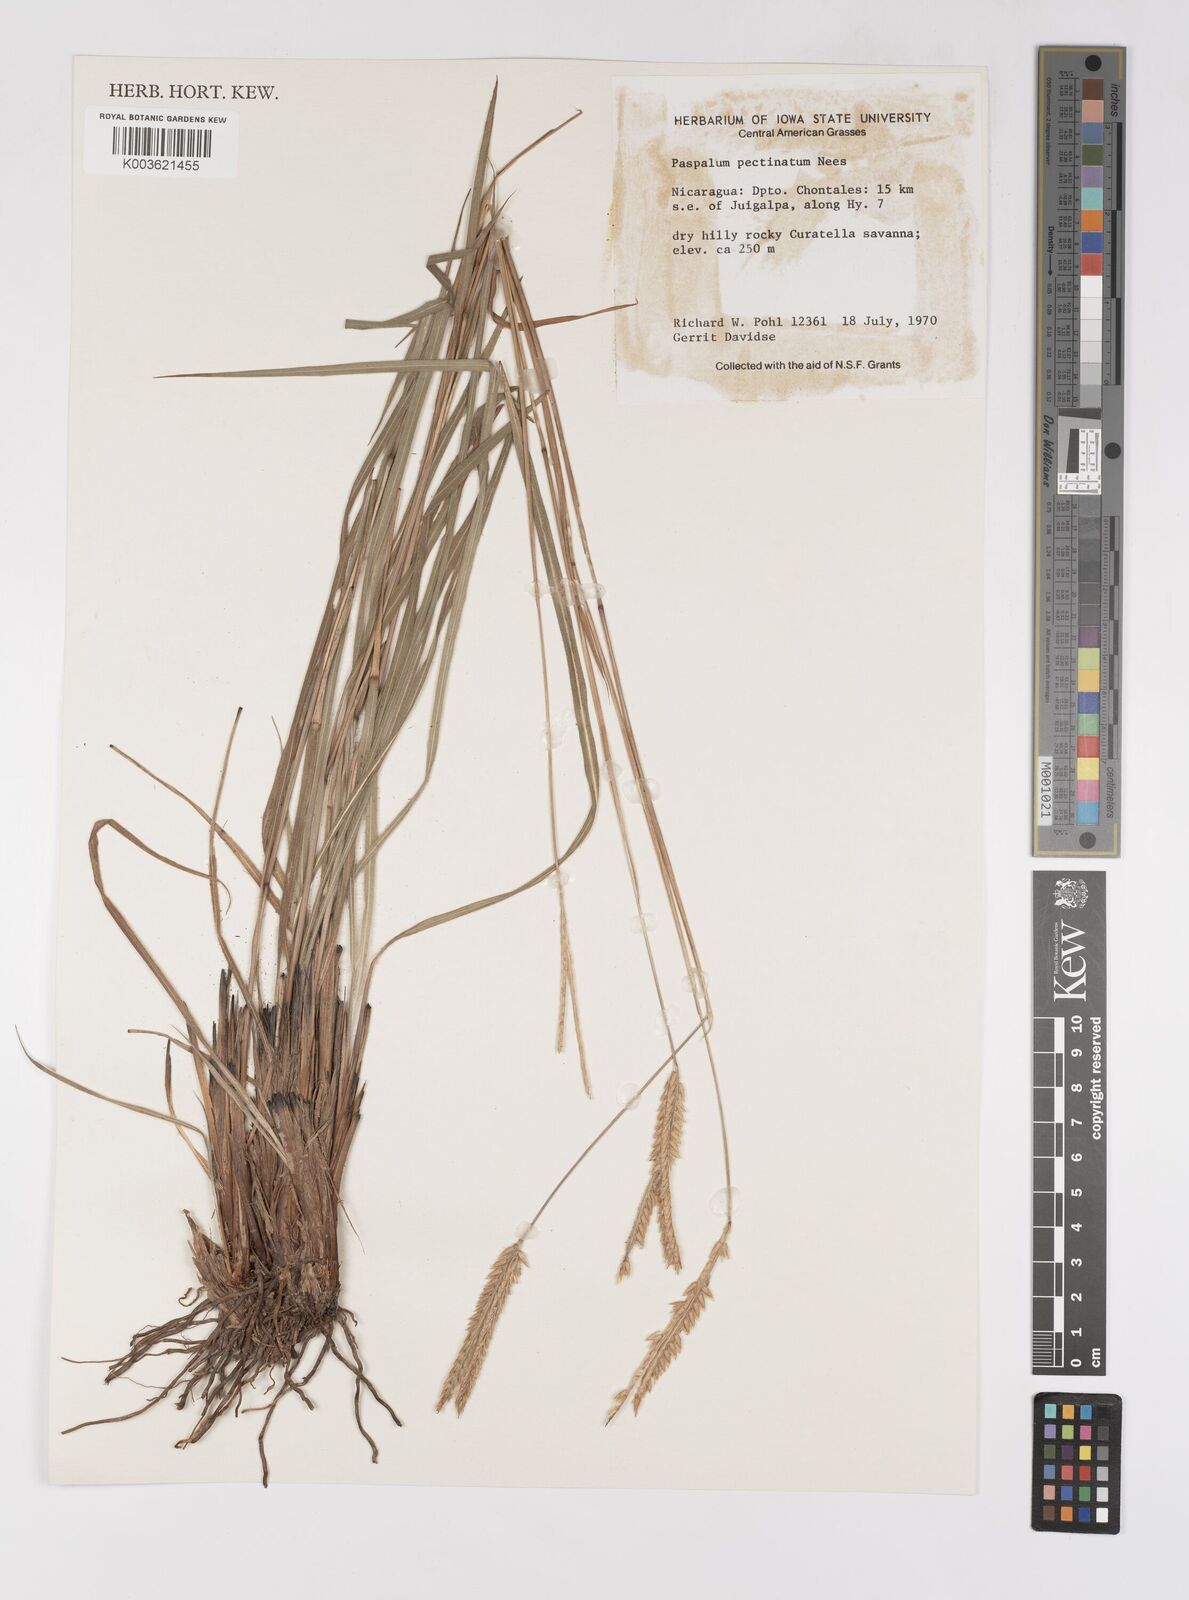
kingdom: Plantae
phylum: Tracheophyta
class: Liliopsida
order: Poales
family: Poaceae
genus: Paspalum
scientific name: Paspalum pectinatum
